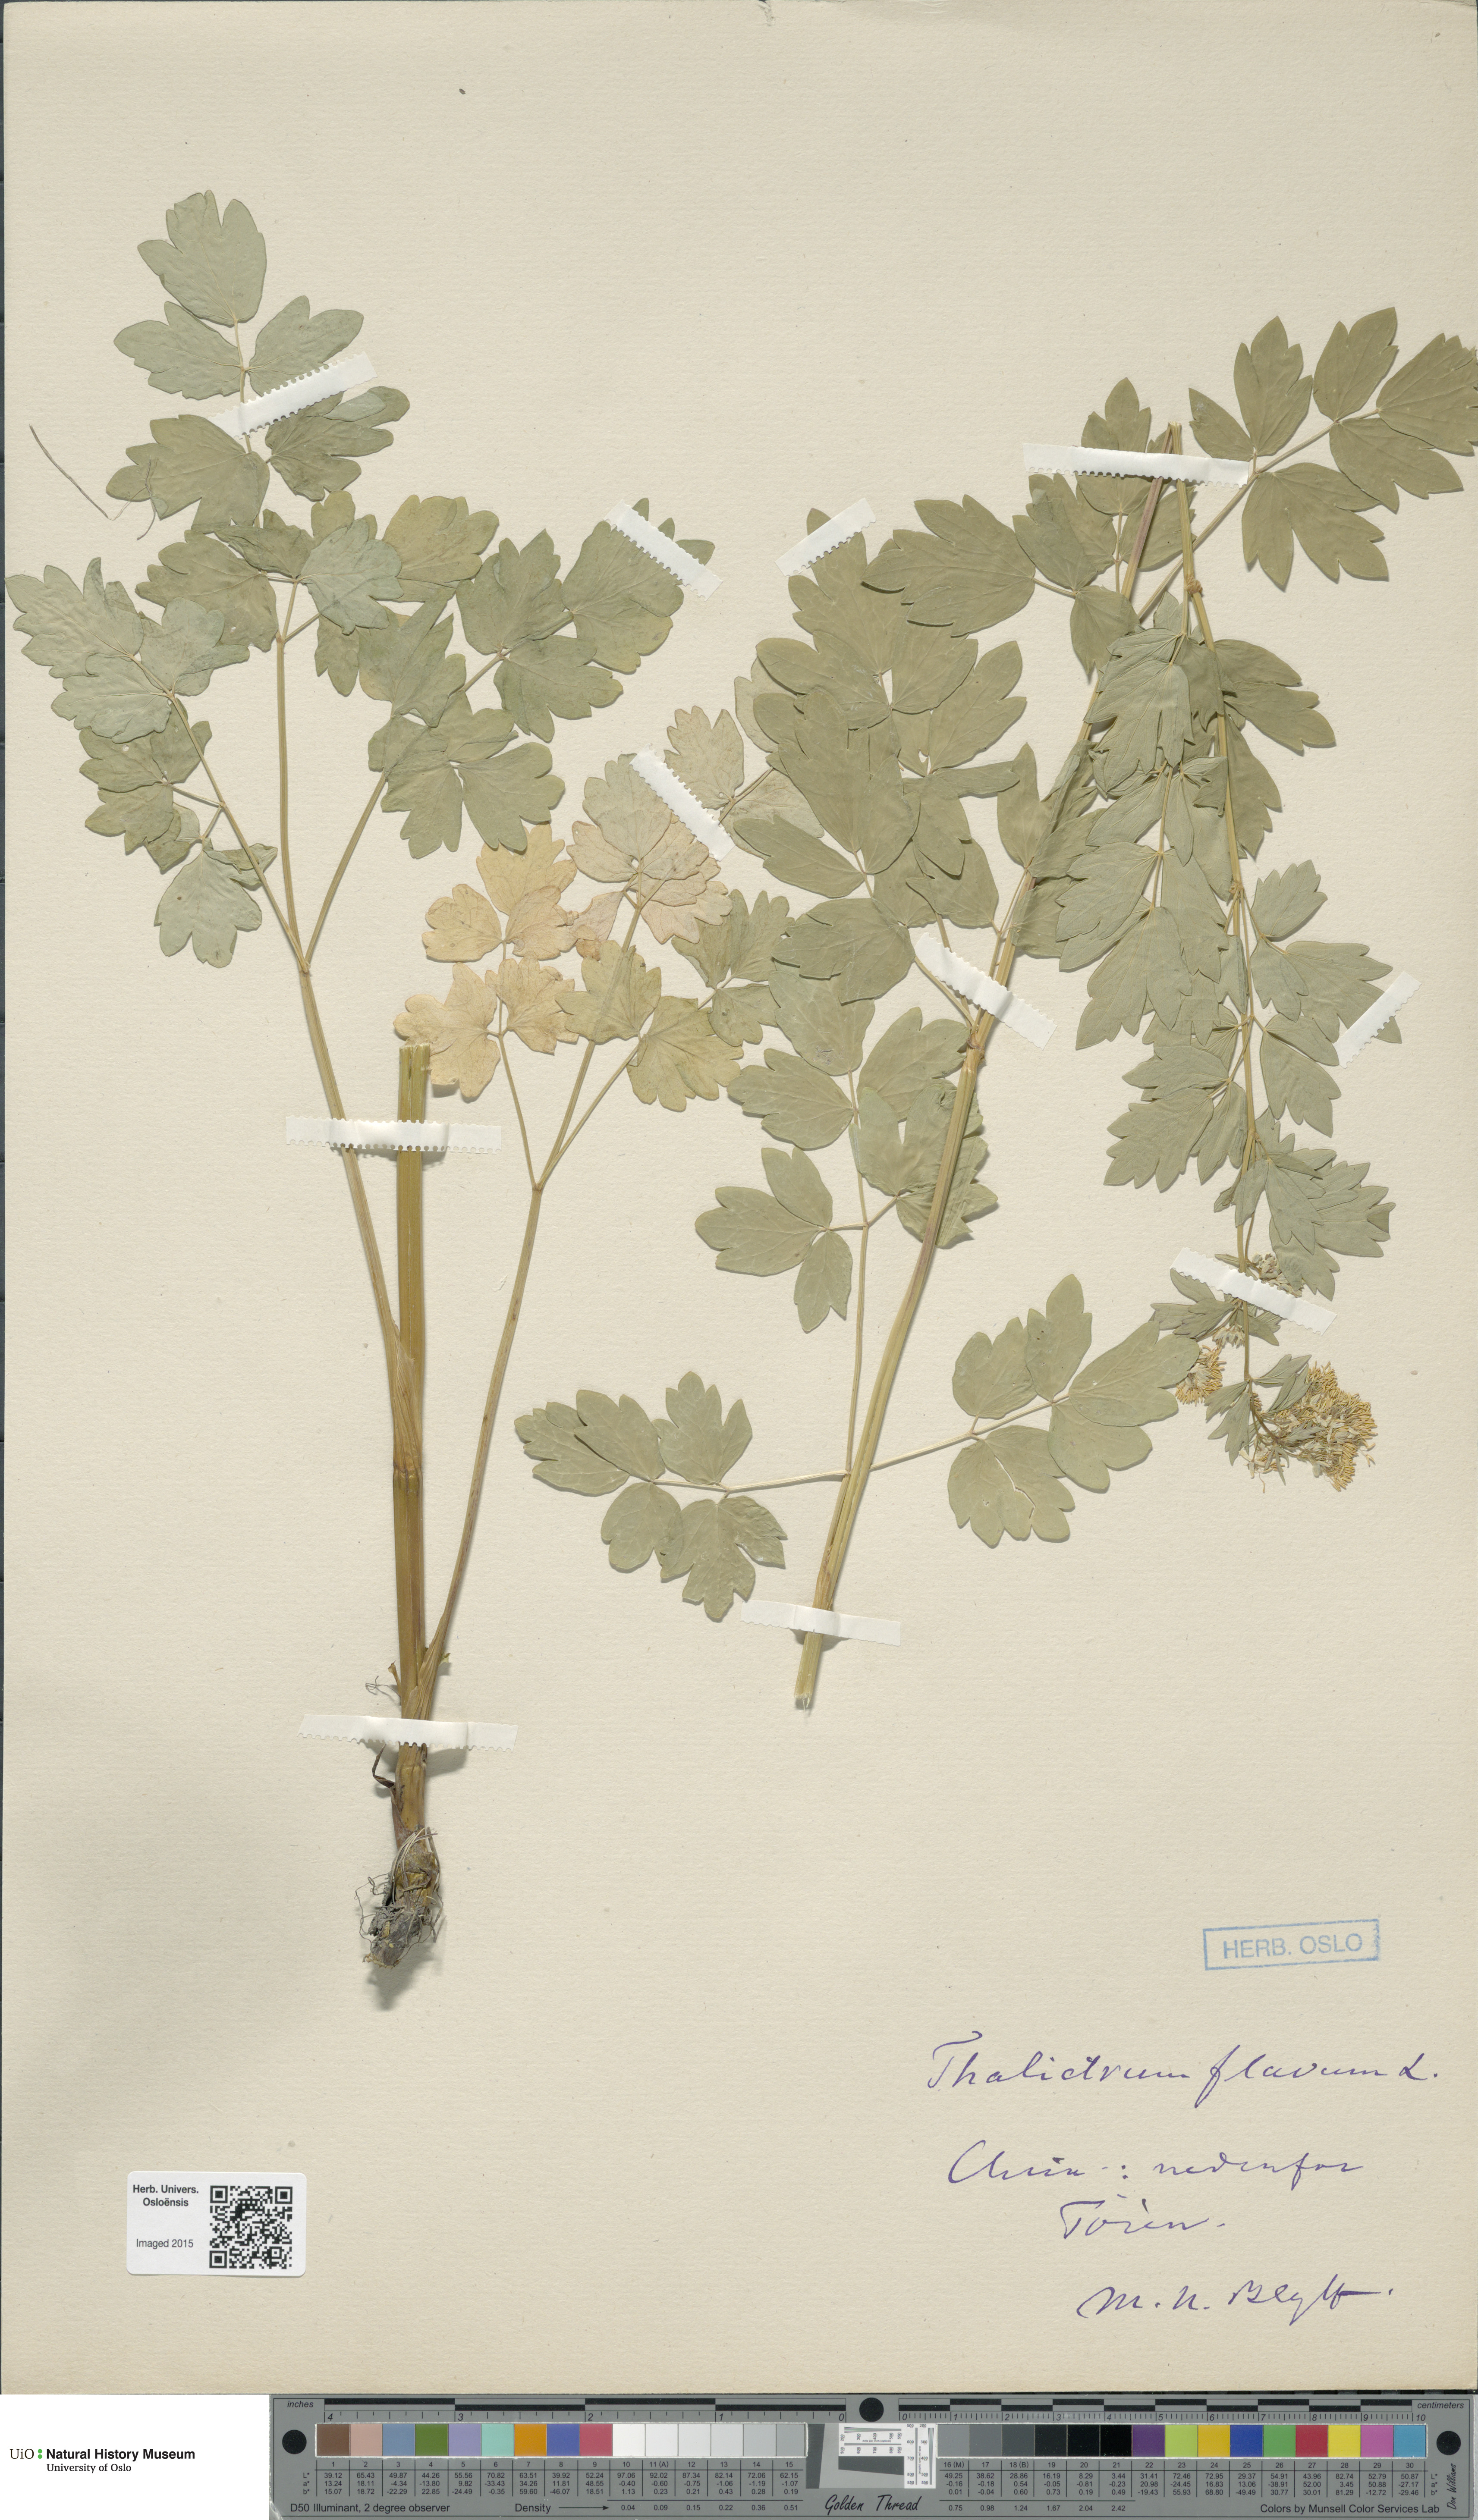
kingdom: Plantae
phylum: Tracheophyta
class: Magnoliopsida
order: Ranunculales
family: Ranunculaceae
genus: Thalictrum
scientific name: Thalictrum flavum
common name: Common meadow-rue
